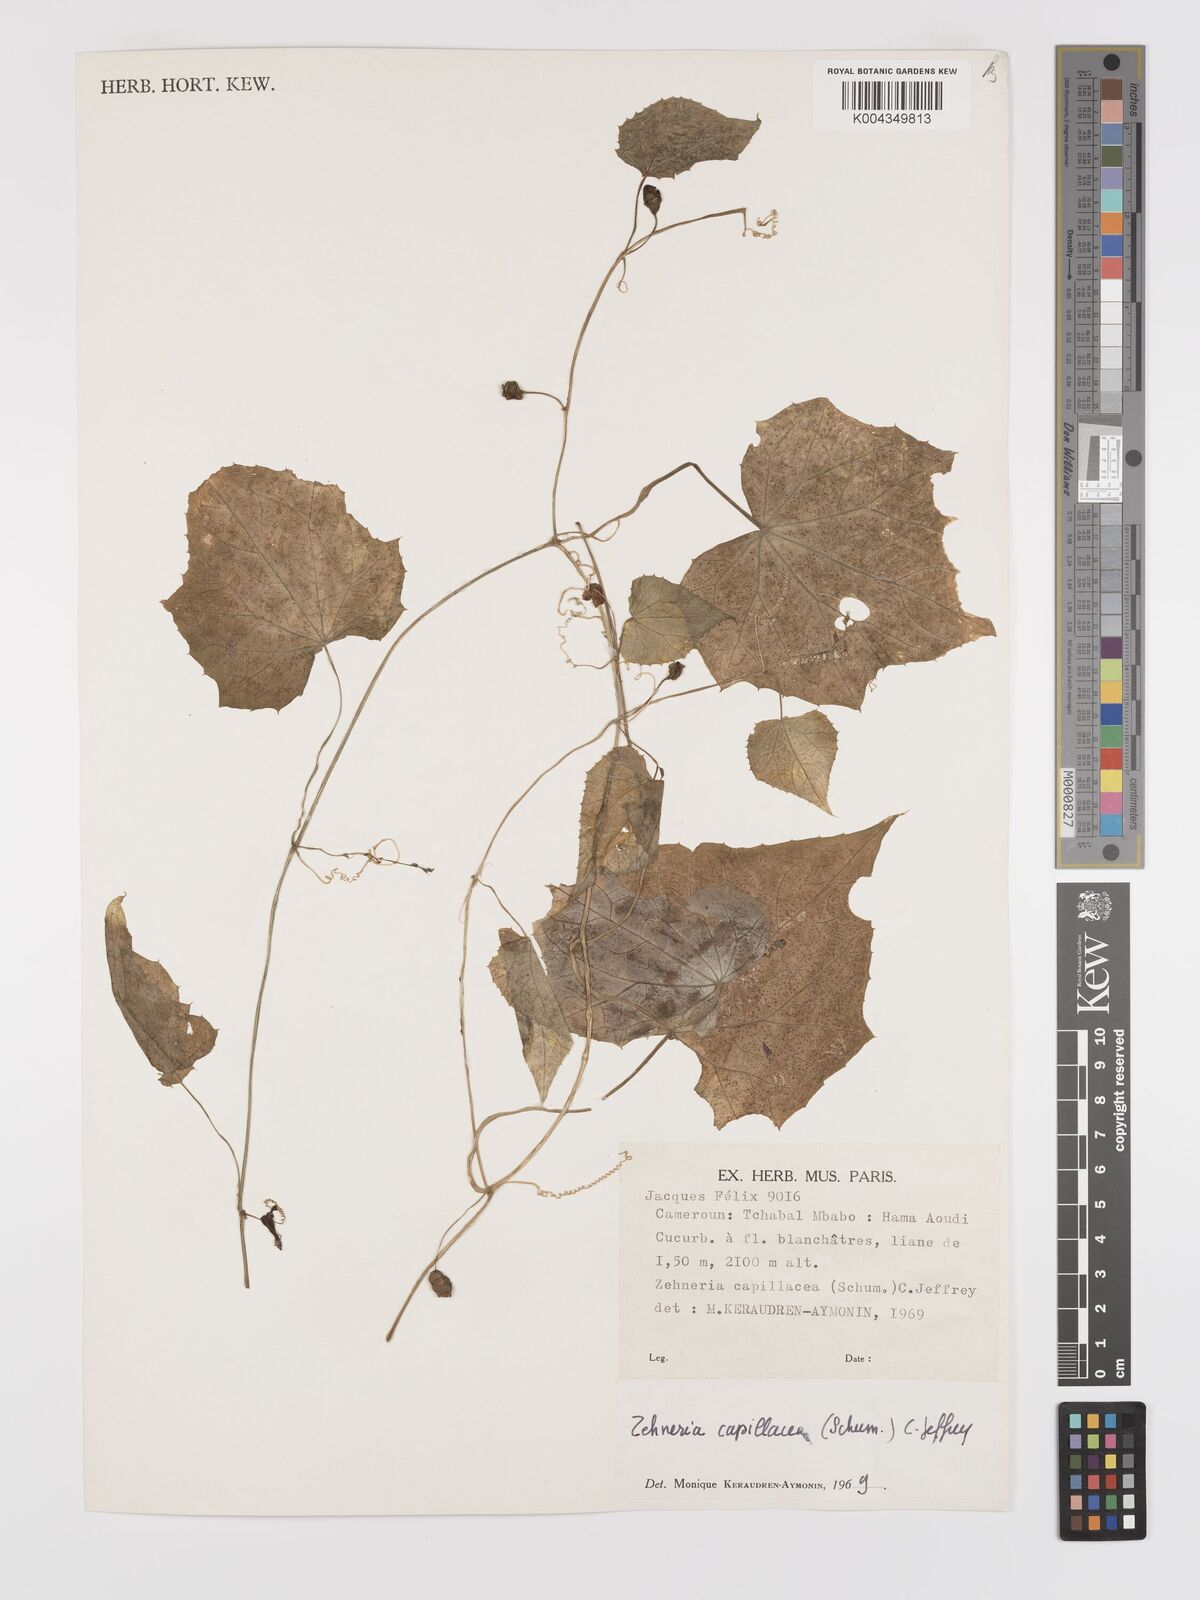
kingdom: Plantae
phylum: Tracheophyta
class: Magnoliopsida
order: Cucurbitales
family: Cucurbitaceae
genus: Zehneria
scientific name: Zehneria capillacea
